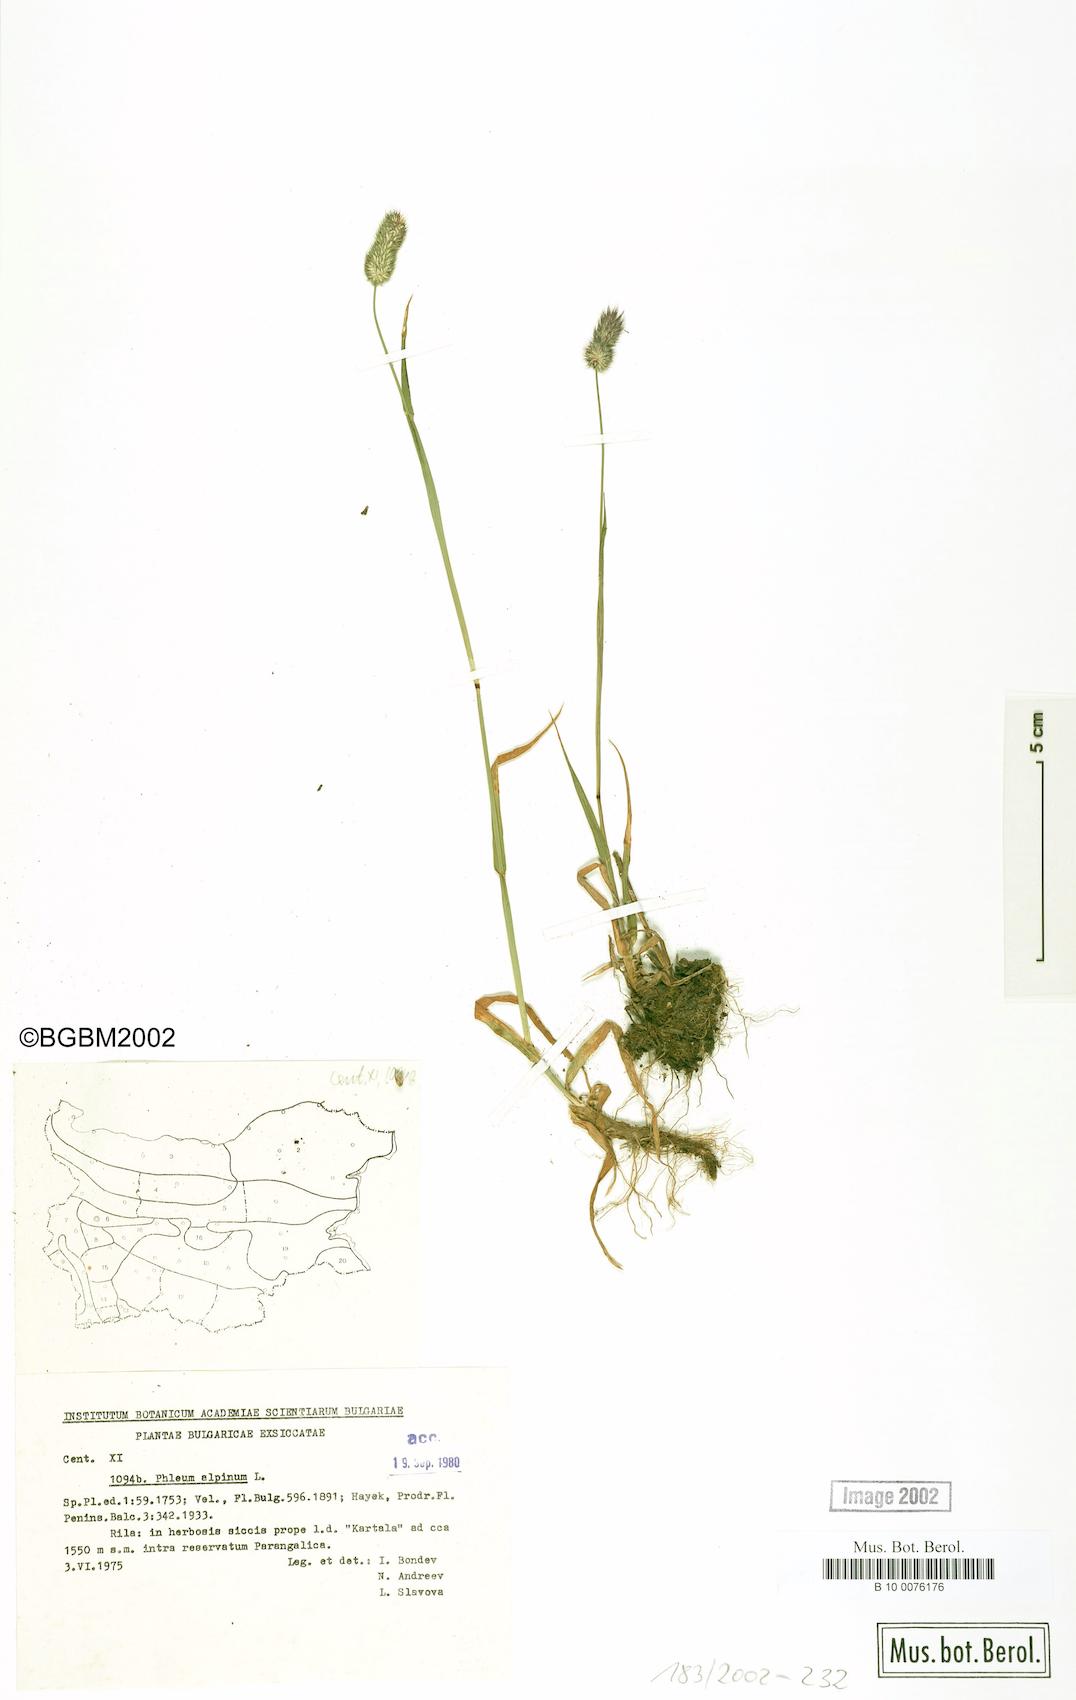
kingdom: Plantae
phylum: Tracheophyta
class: Liliopsida
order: Poales
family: Poaceae
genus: Phleum
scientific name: Phleum alpinum
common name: Alpine cat's-tail
